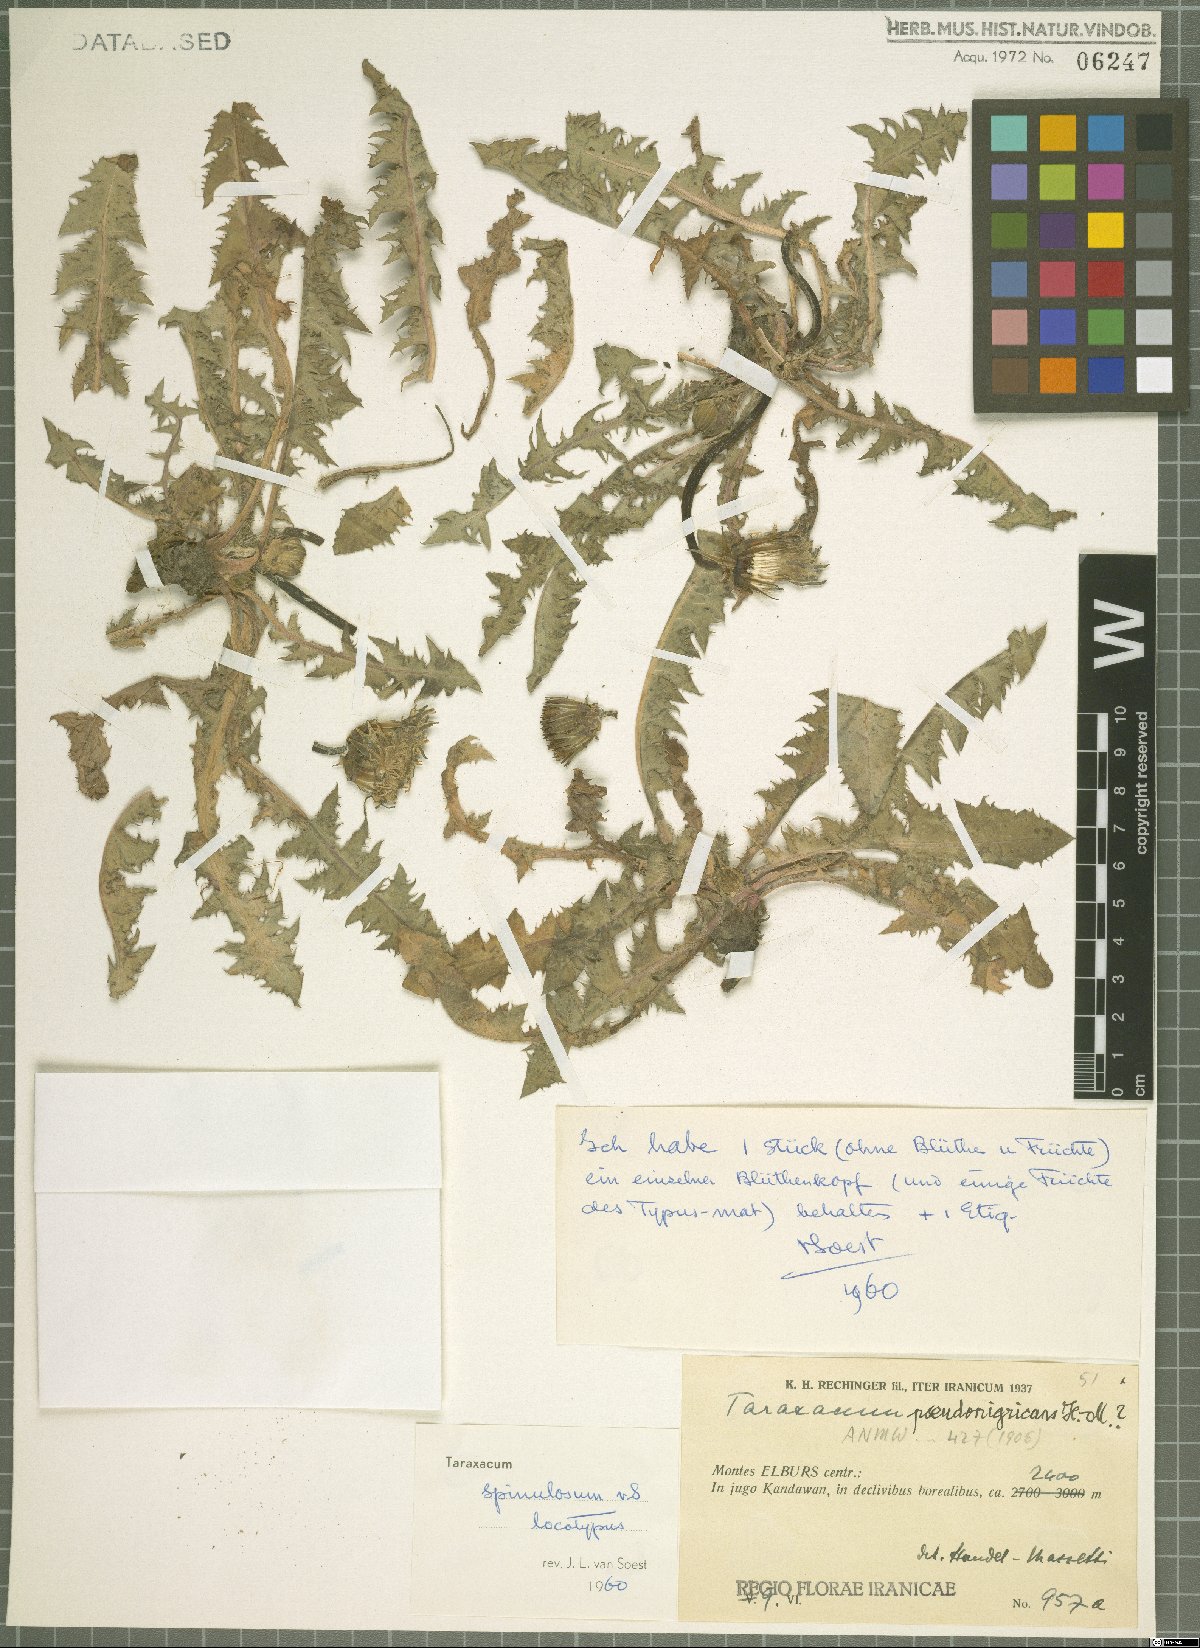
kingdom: Plantae
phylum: Tracheophyta
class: Magnoliopsida
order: Asterales
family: Asteraceae
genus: Taraxacum
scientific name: Taraxacum androssovii
